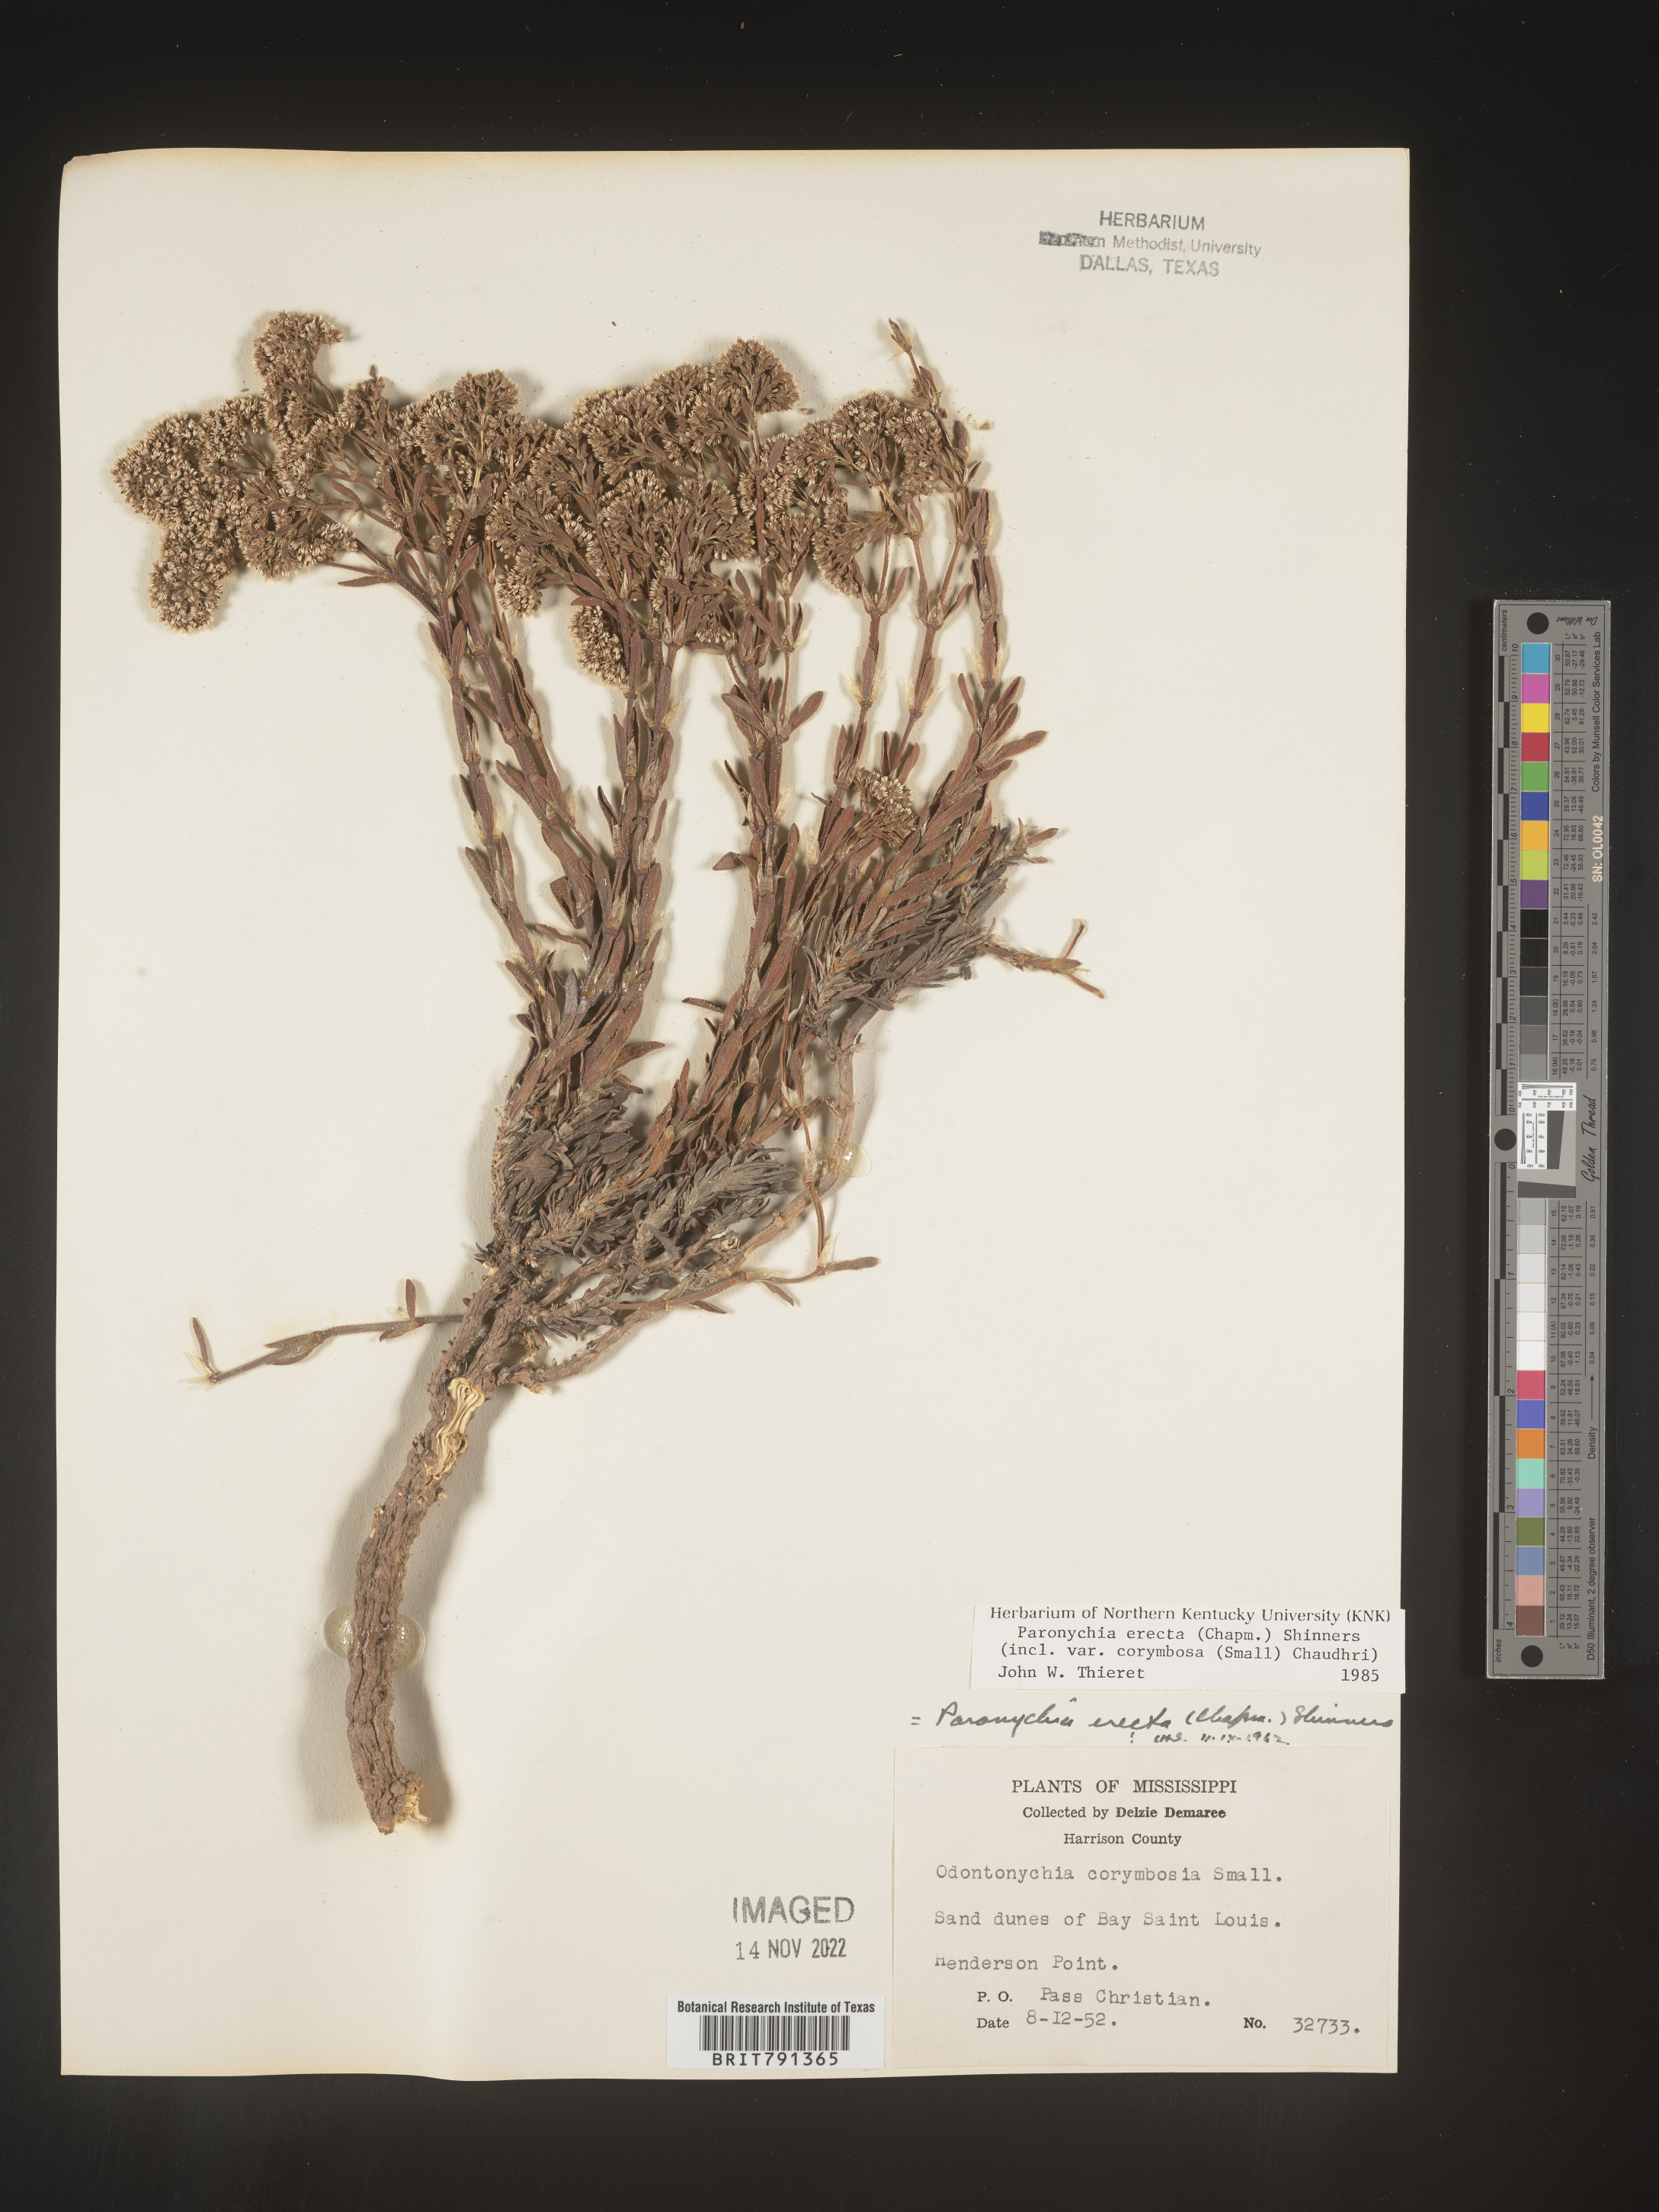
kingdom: Plantae
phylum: Tracheophyta
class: Magnoliopsida
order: Caryophyllales
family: Caryophyllaceae
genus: Paronychia
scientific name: Paronychia erecta
